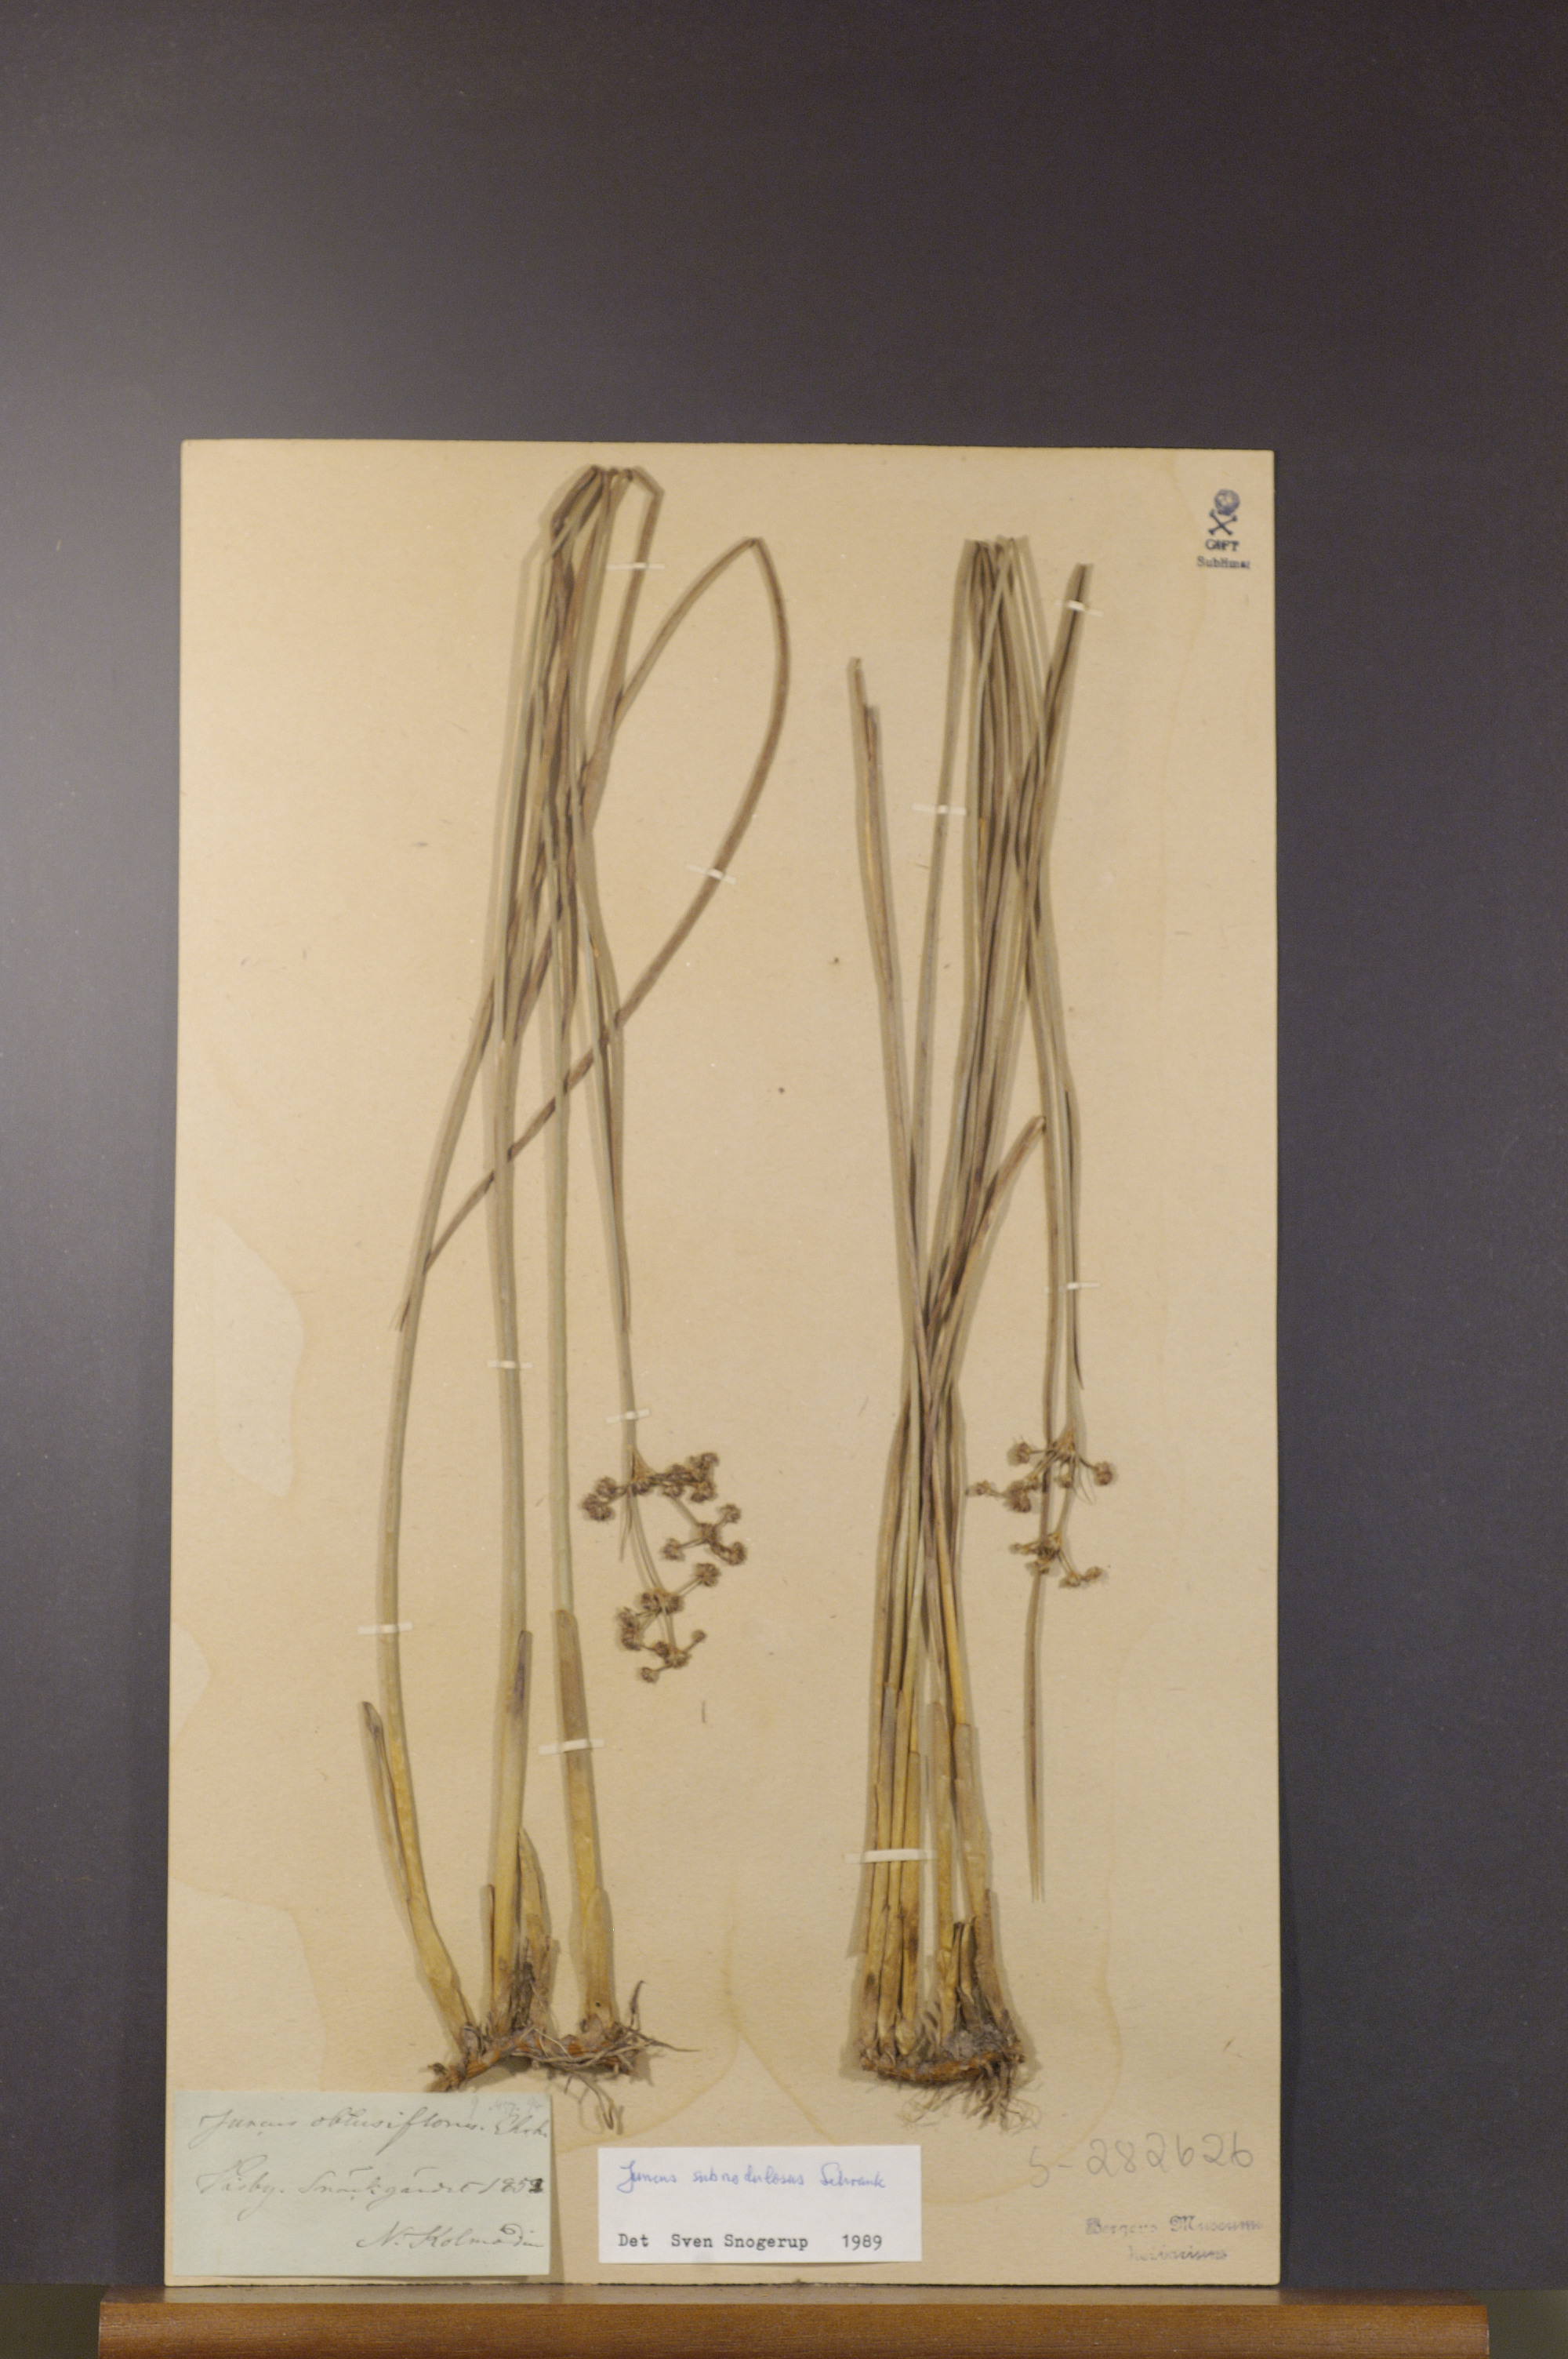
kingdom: Plantae
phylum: Tracheophyta
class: Liliopsida
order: Poales
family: Juncaceae
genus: Juncus
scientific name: Juncus subnodulosus
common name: Blunt-flowered rush
